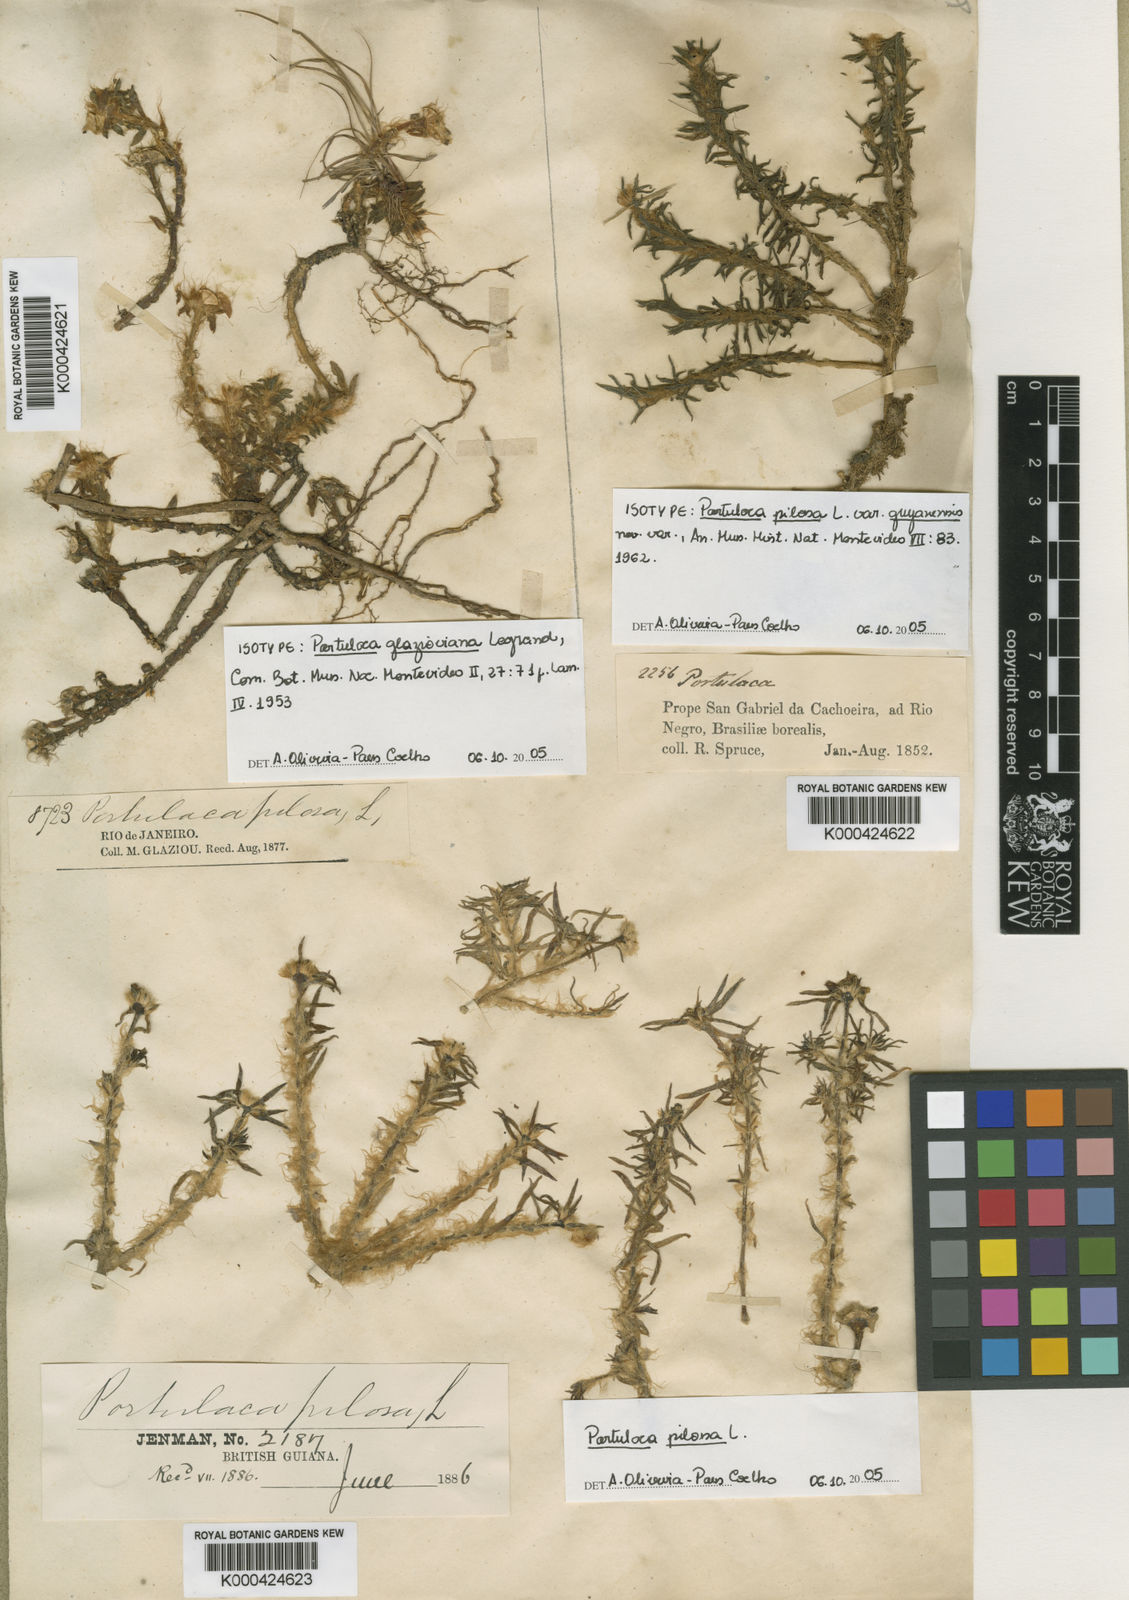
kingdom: Plantae
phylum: Tracheophyta
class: Magnoliopsida
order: Caryophyllales
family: Portulacaceae
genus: Portulaca
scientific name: Portulaca amilis
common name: Paraguayan purslane
